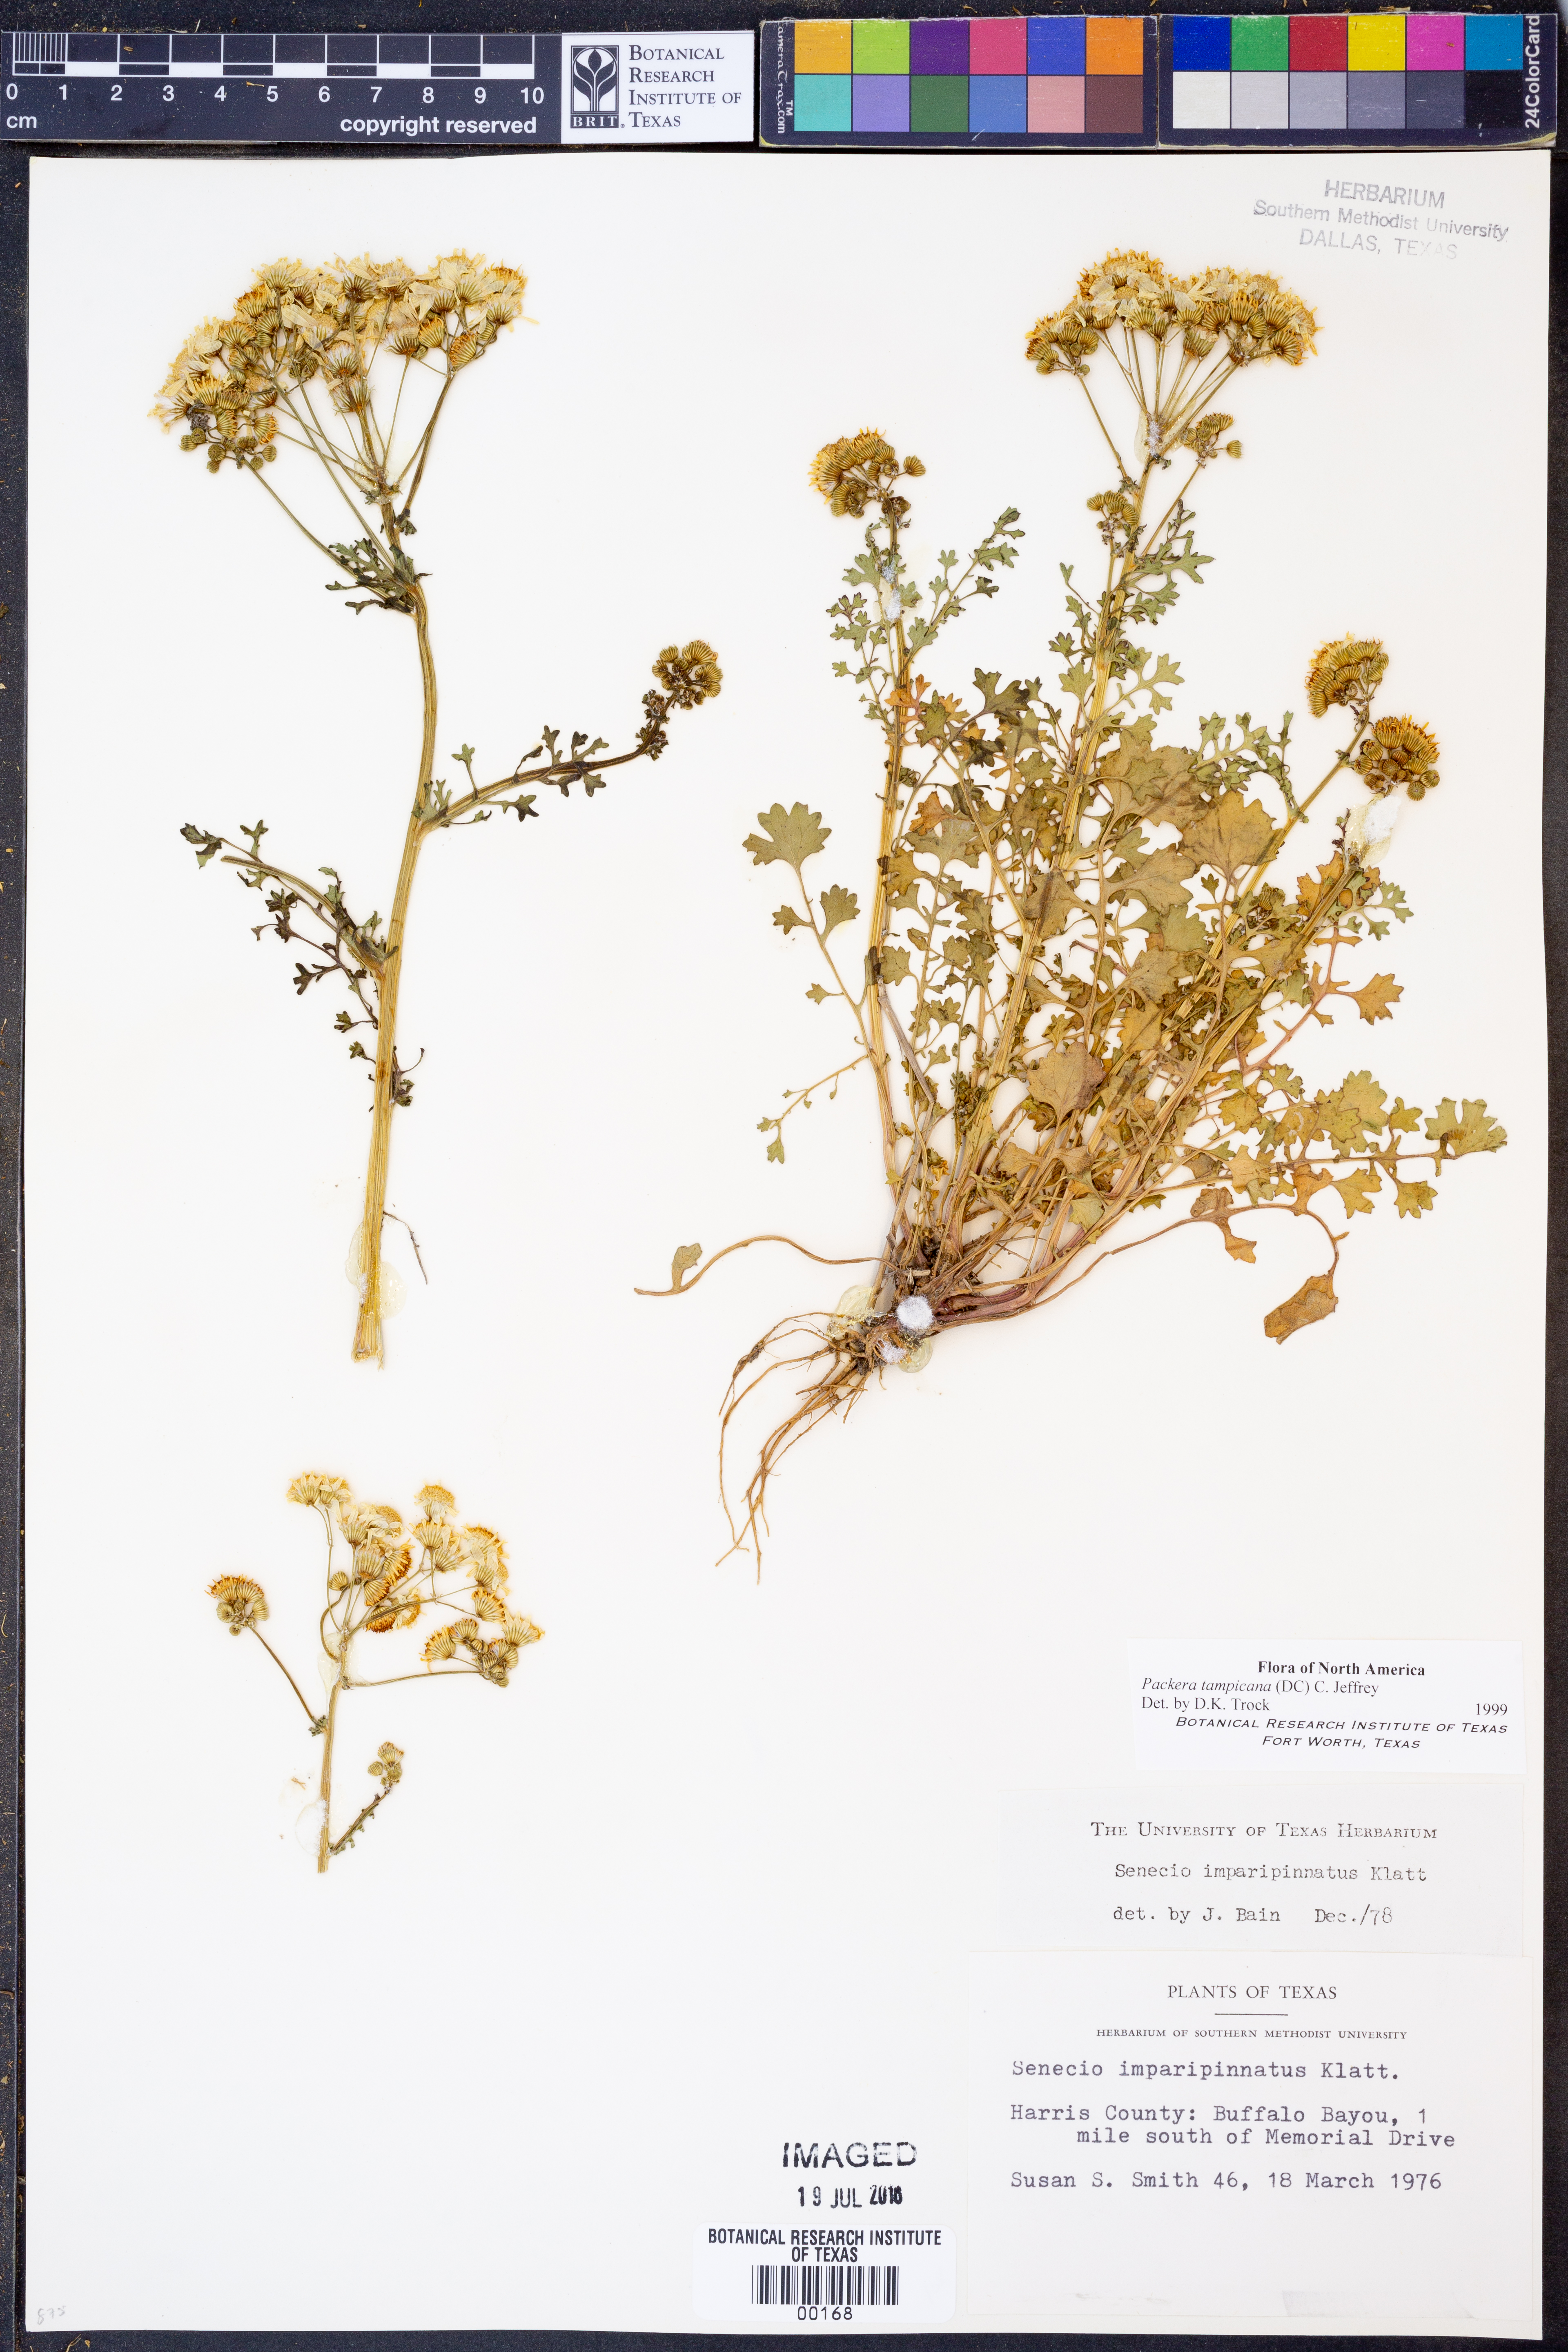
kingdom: Plantae
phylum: Tracheophyta
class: Magnoliopsida
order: Asterales
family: Asteraceae
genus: Packera
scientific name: Packera tampicana
